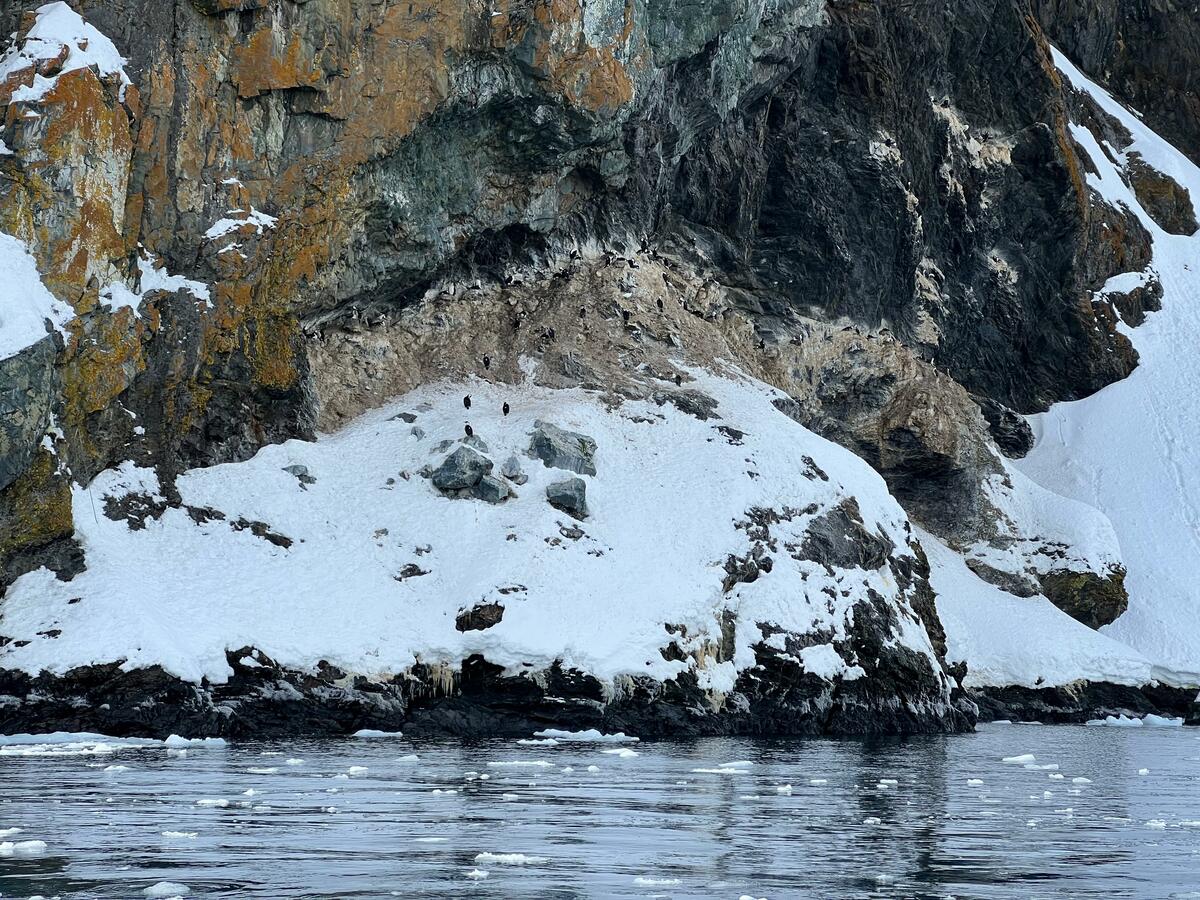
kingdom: Animalia
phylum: Chordata
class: Aves
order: Suliformes
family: Phalacrocoracidae
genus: Leucocarbo
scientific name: Leucocarbo atriceps
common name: Antarctic shag
